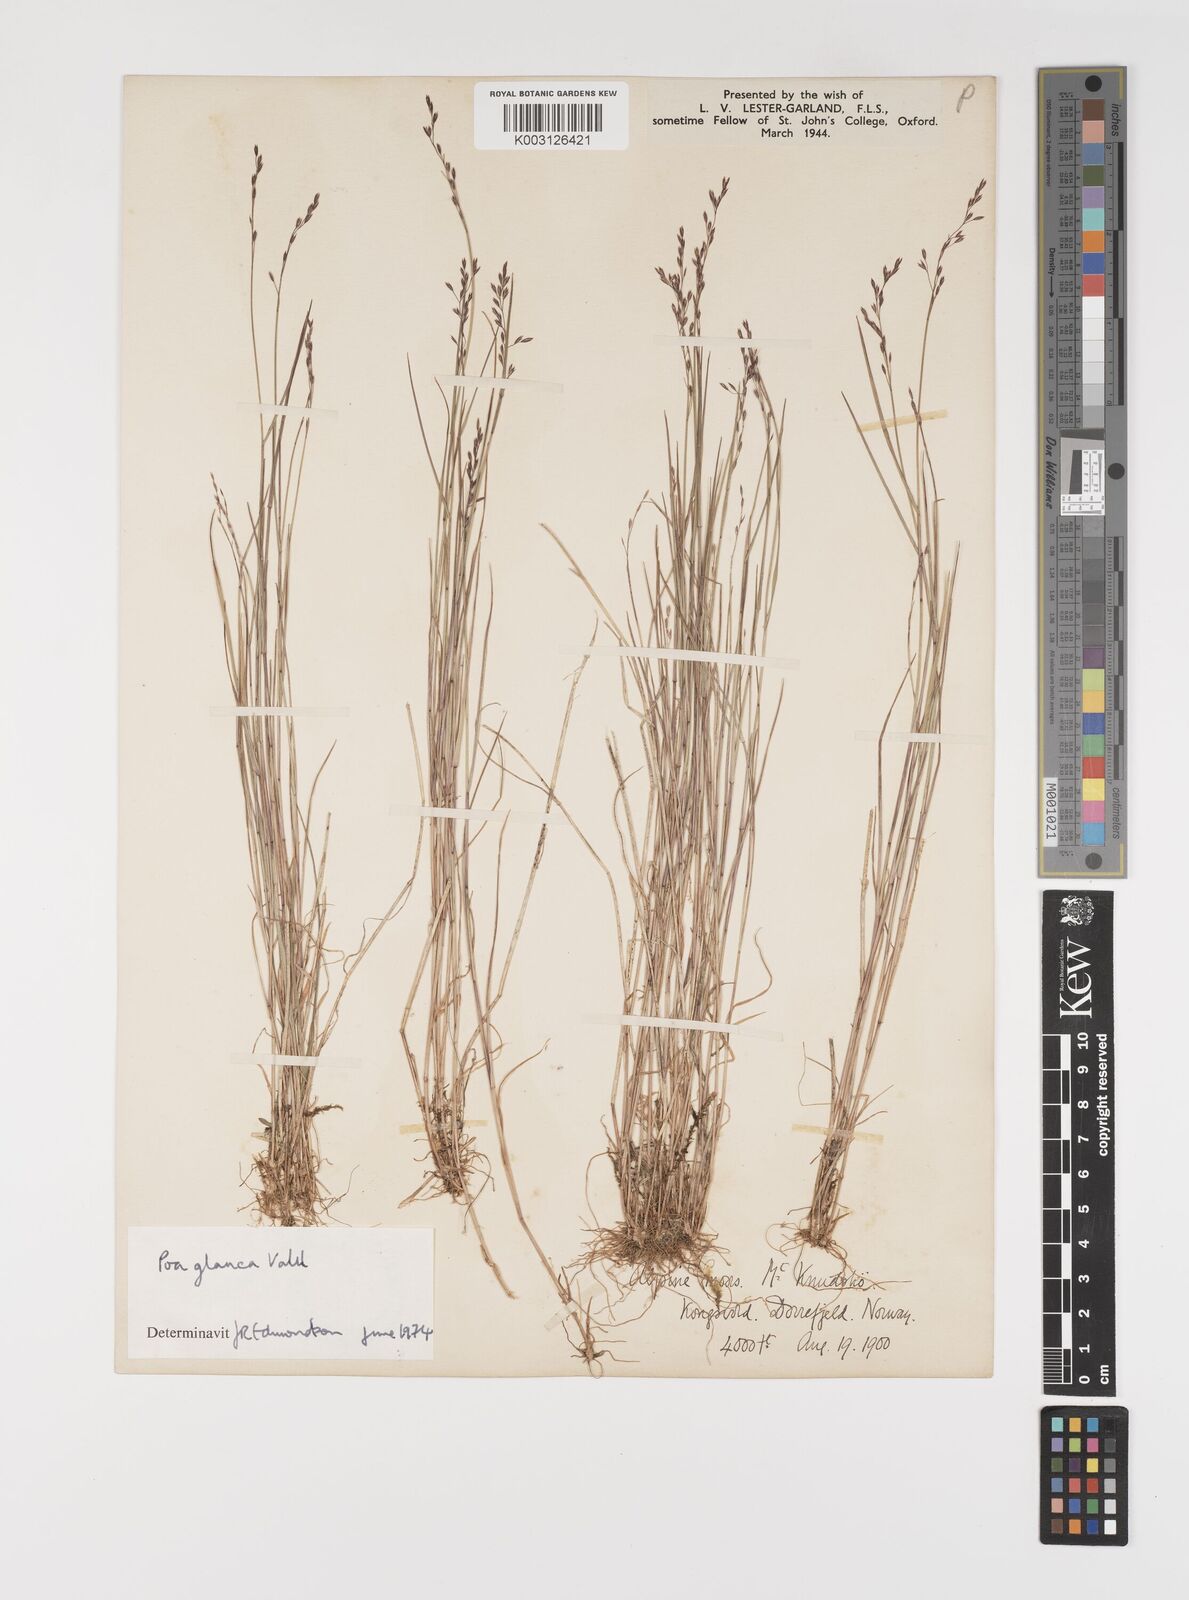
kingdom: Plantae
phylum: Tracheophyta
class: Liliopsida
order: Poales
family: Poaceae
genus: Poa
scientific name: Poa nemoralis
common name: Wood bluegrass
